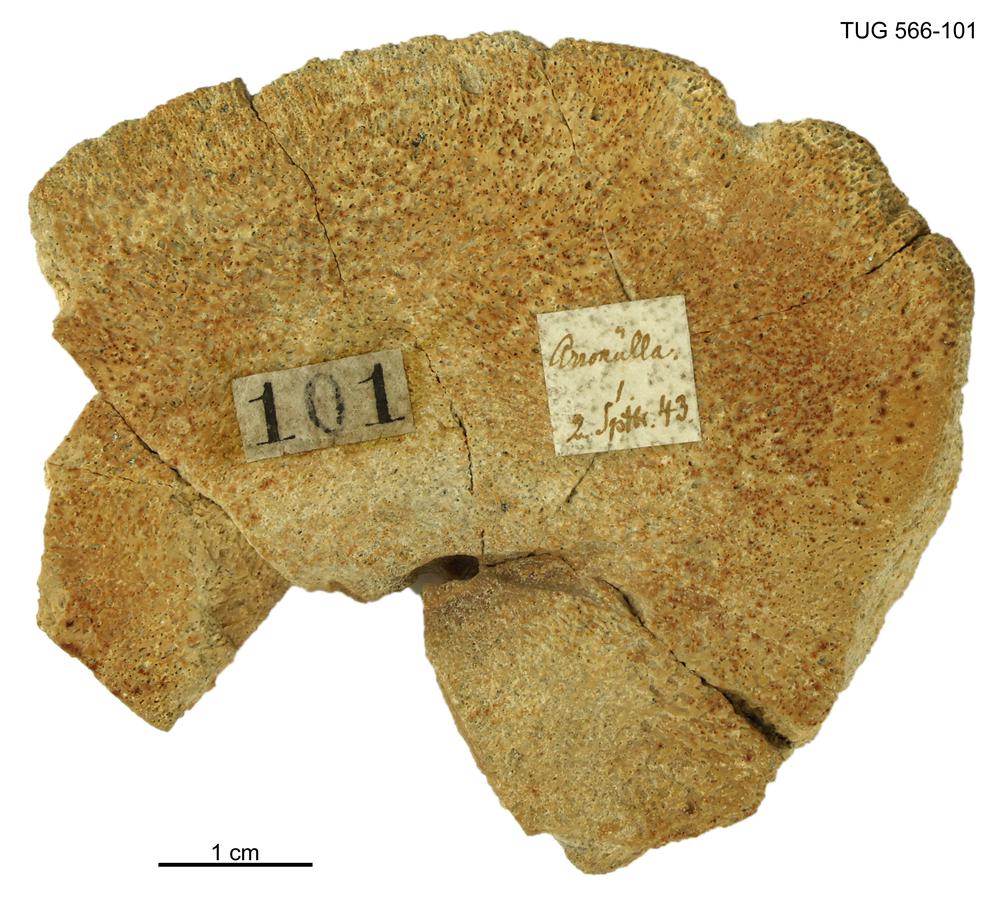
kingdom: Animalia
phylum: Chordata
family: Homostiidae
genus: Homostius
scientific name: Homostius
